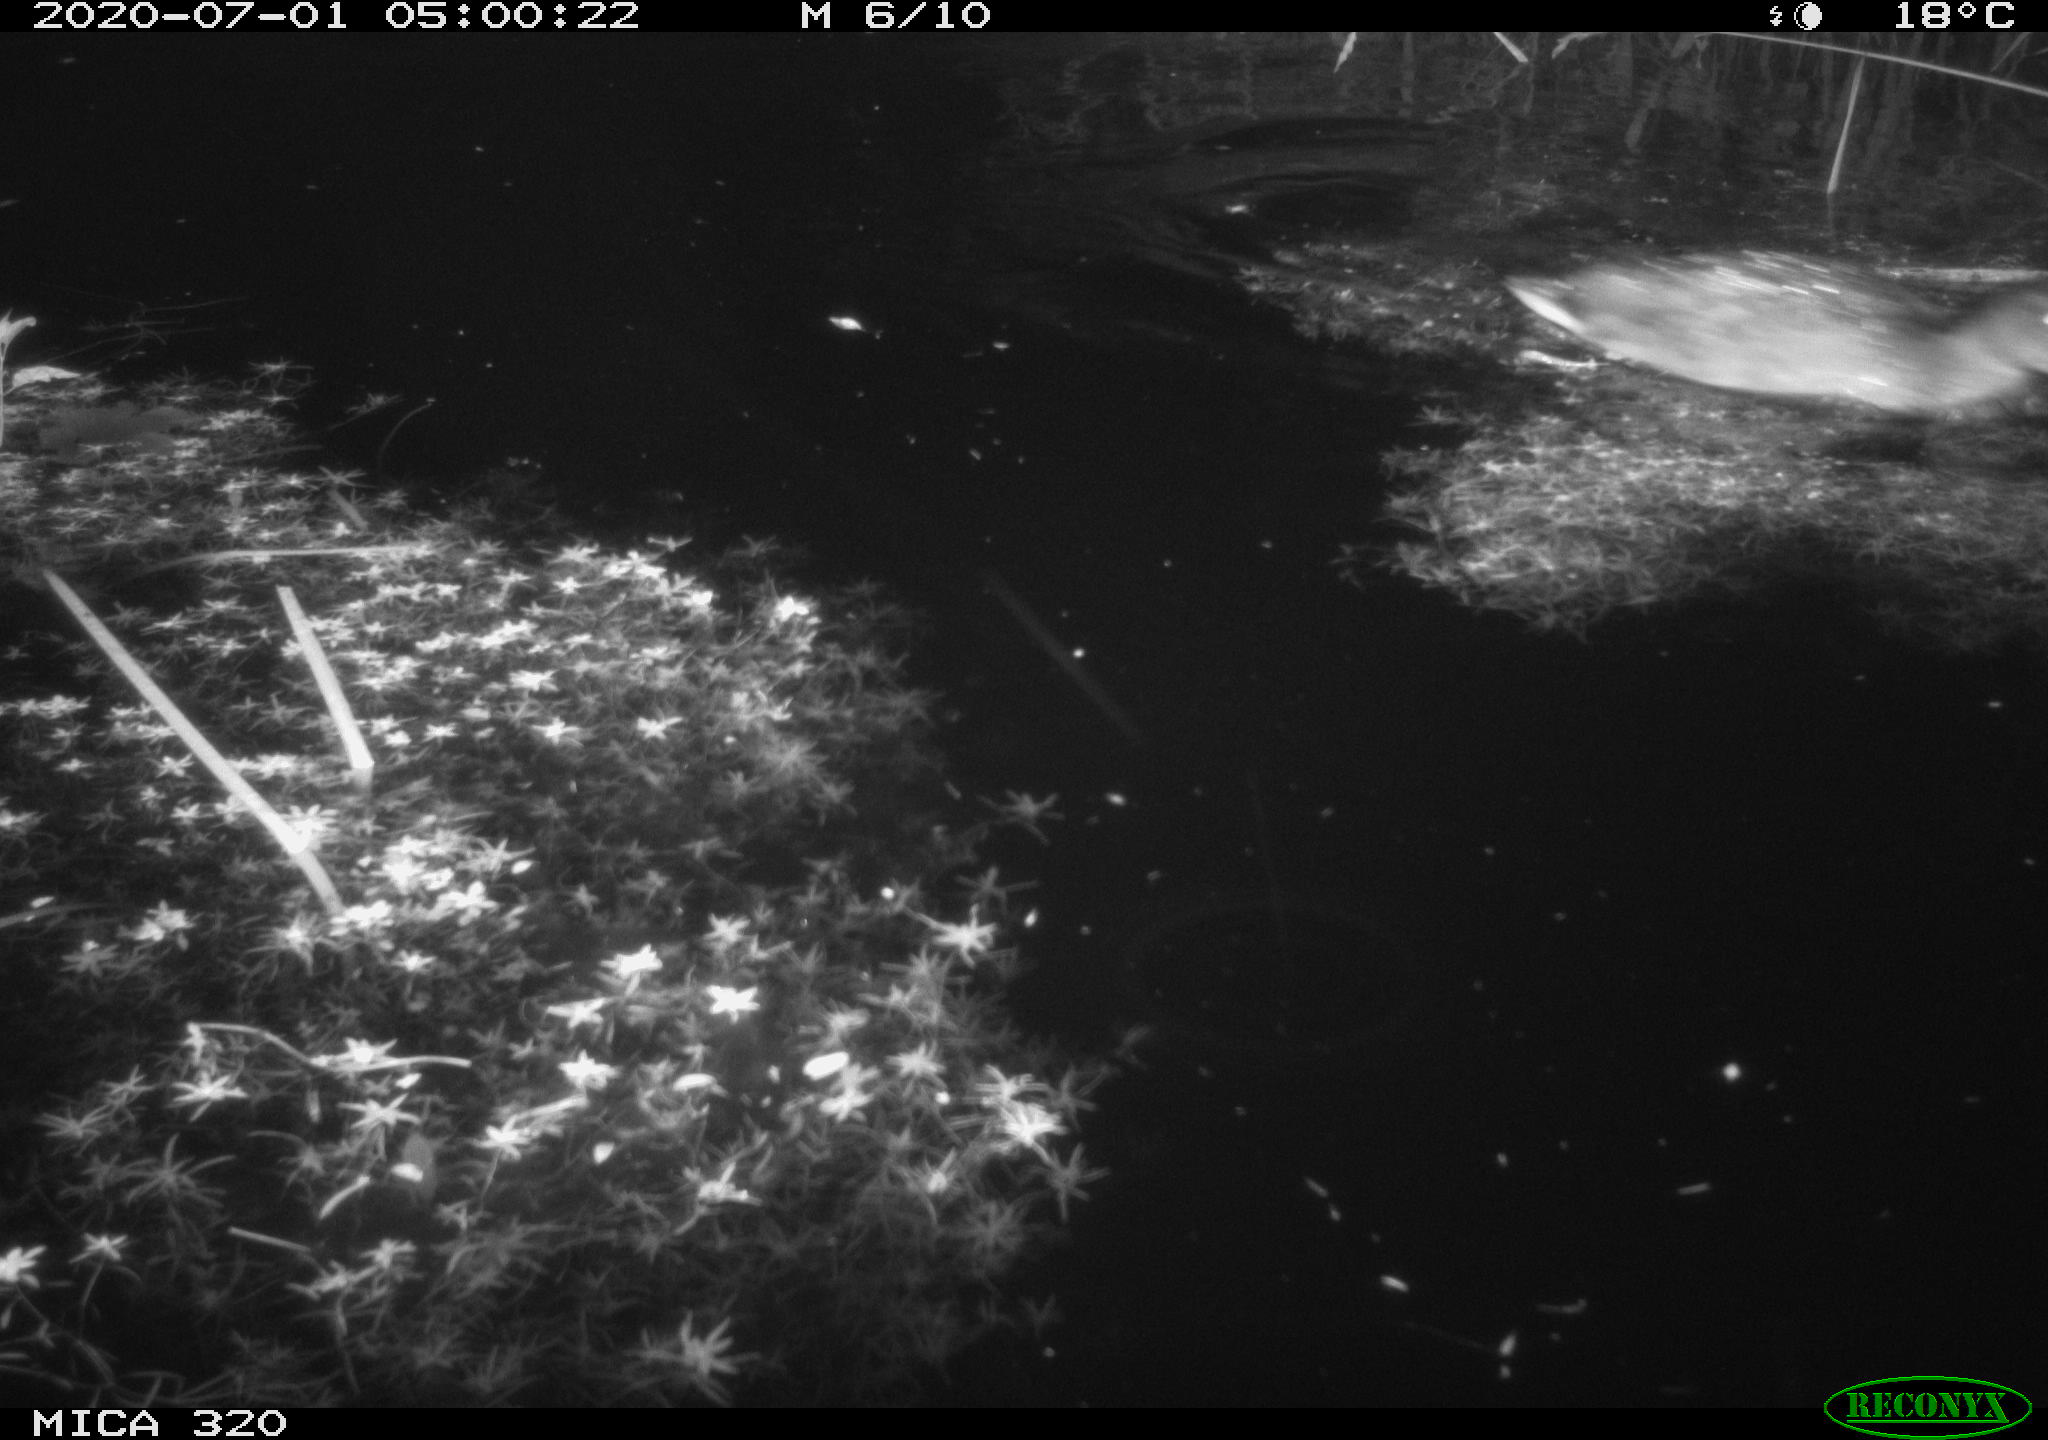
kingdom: Animalia
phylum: Chordata
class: Aves
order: Anseriformes
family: Anatidae
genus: Anas
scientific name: Anas platyrhynchos
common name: Mallard
